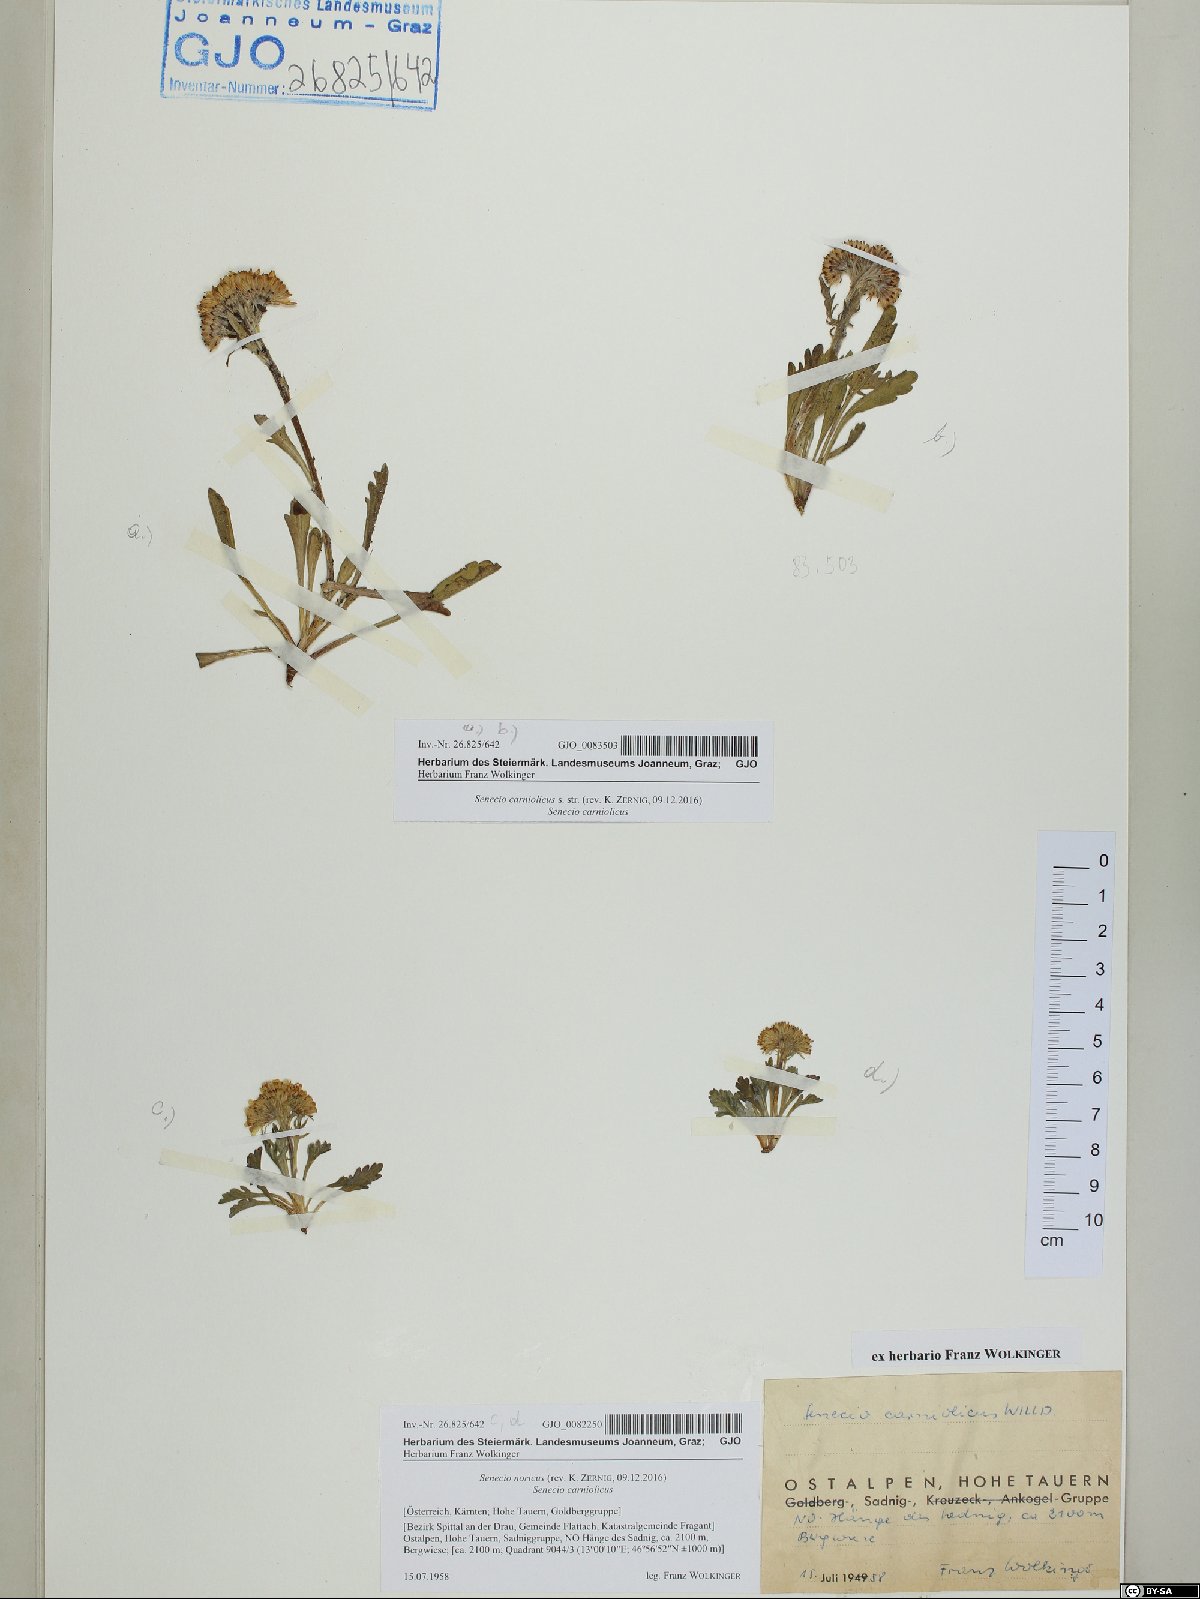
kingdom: Plantae
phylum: Tracheophyta
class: Magnoliopsida
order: Asterales
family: Asteraceae
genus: Jacobaea
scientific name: Jacobaea norica
